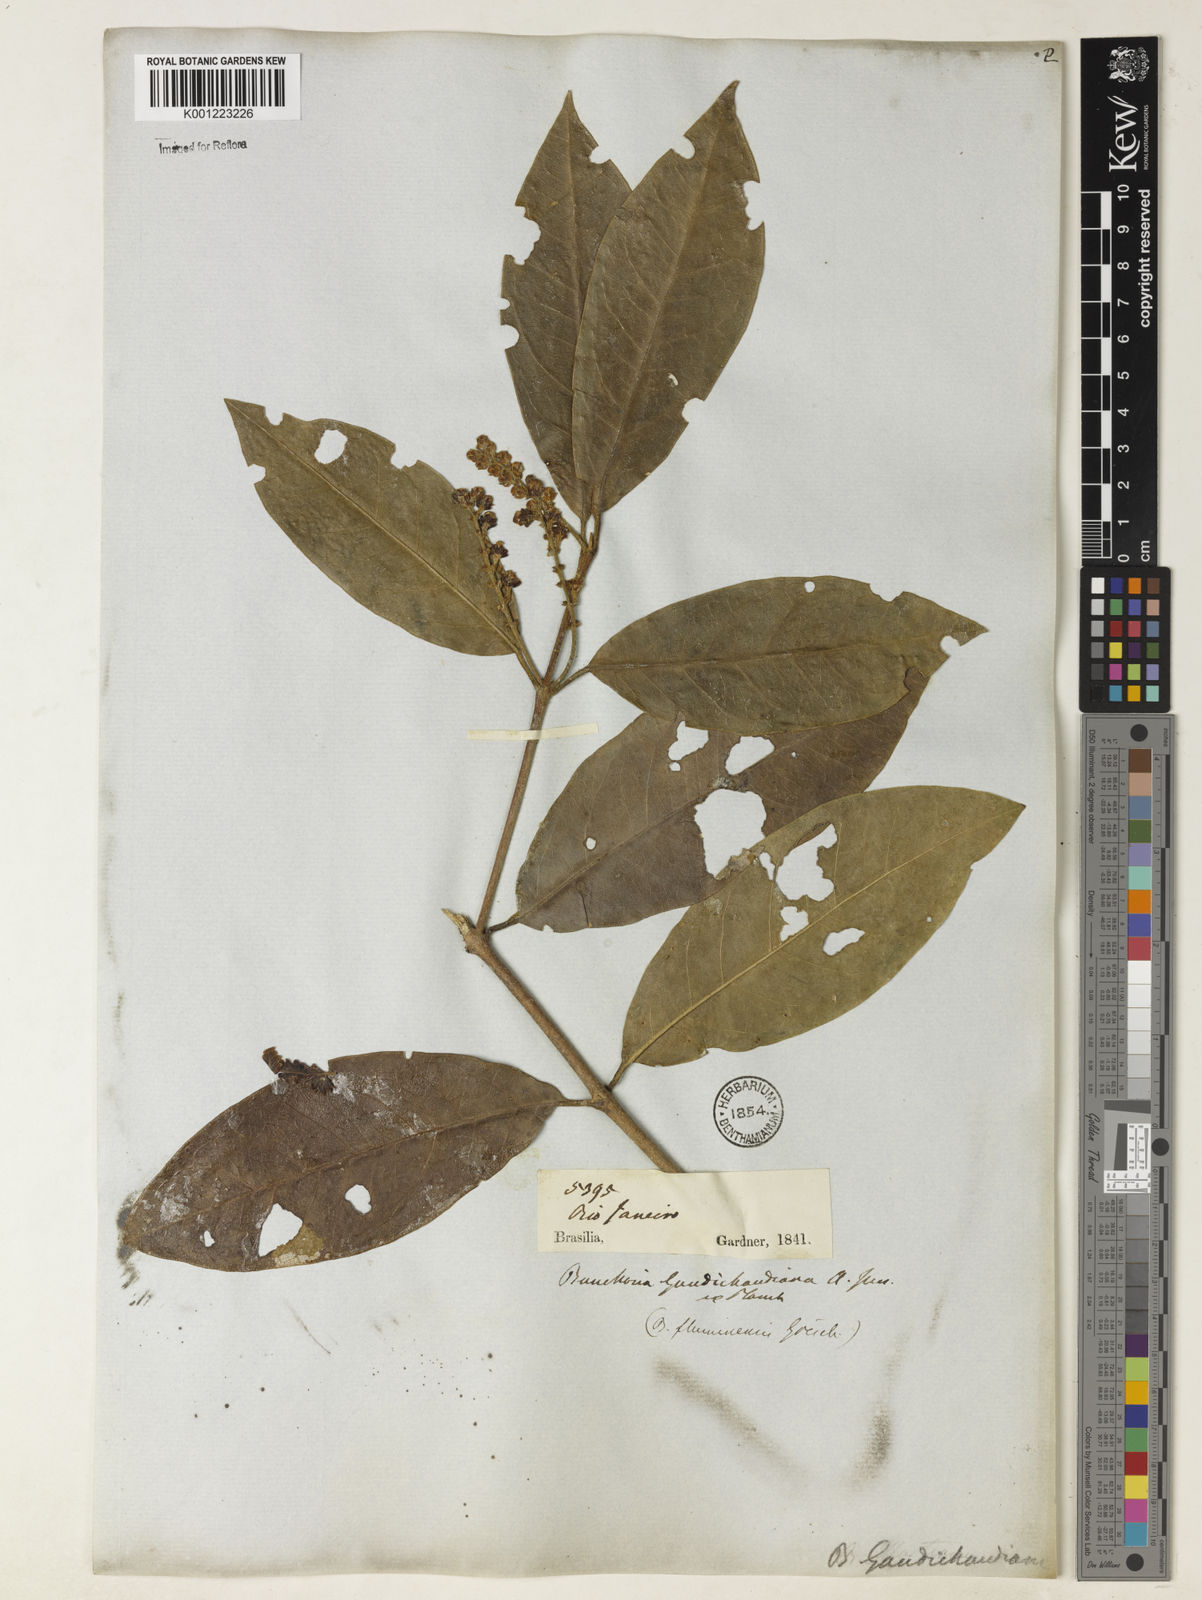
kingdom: Plantae
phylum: Tracheophyta
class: Magnoliopsida
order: Malpighiales
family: Malpighiaceae
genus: Bunchosia
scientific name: Bunchosia fluminensis
